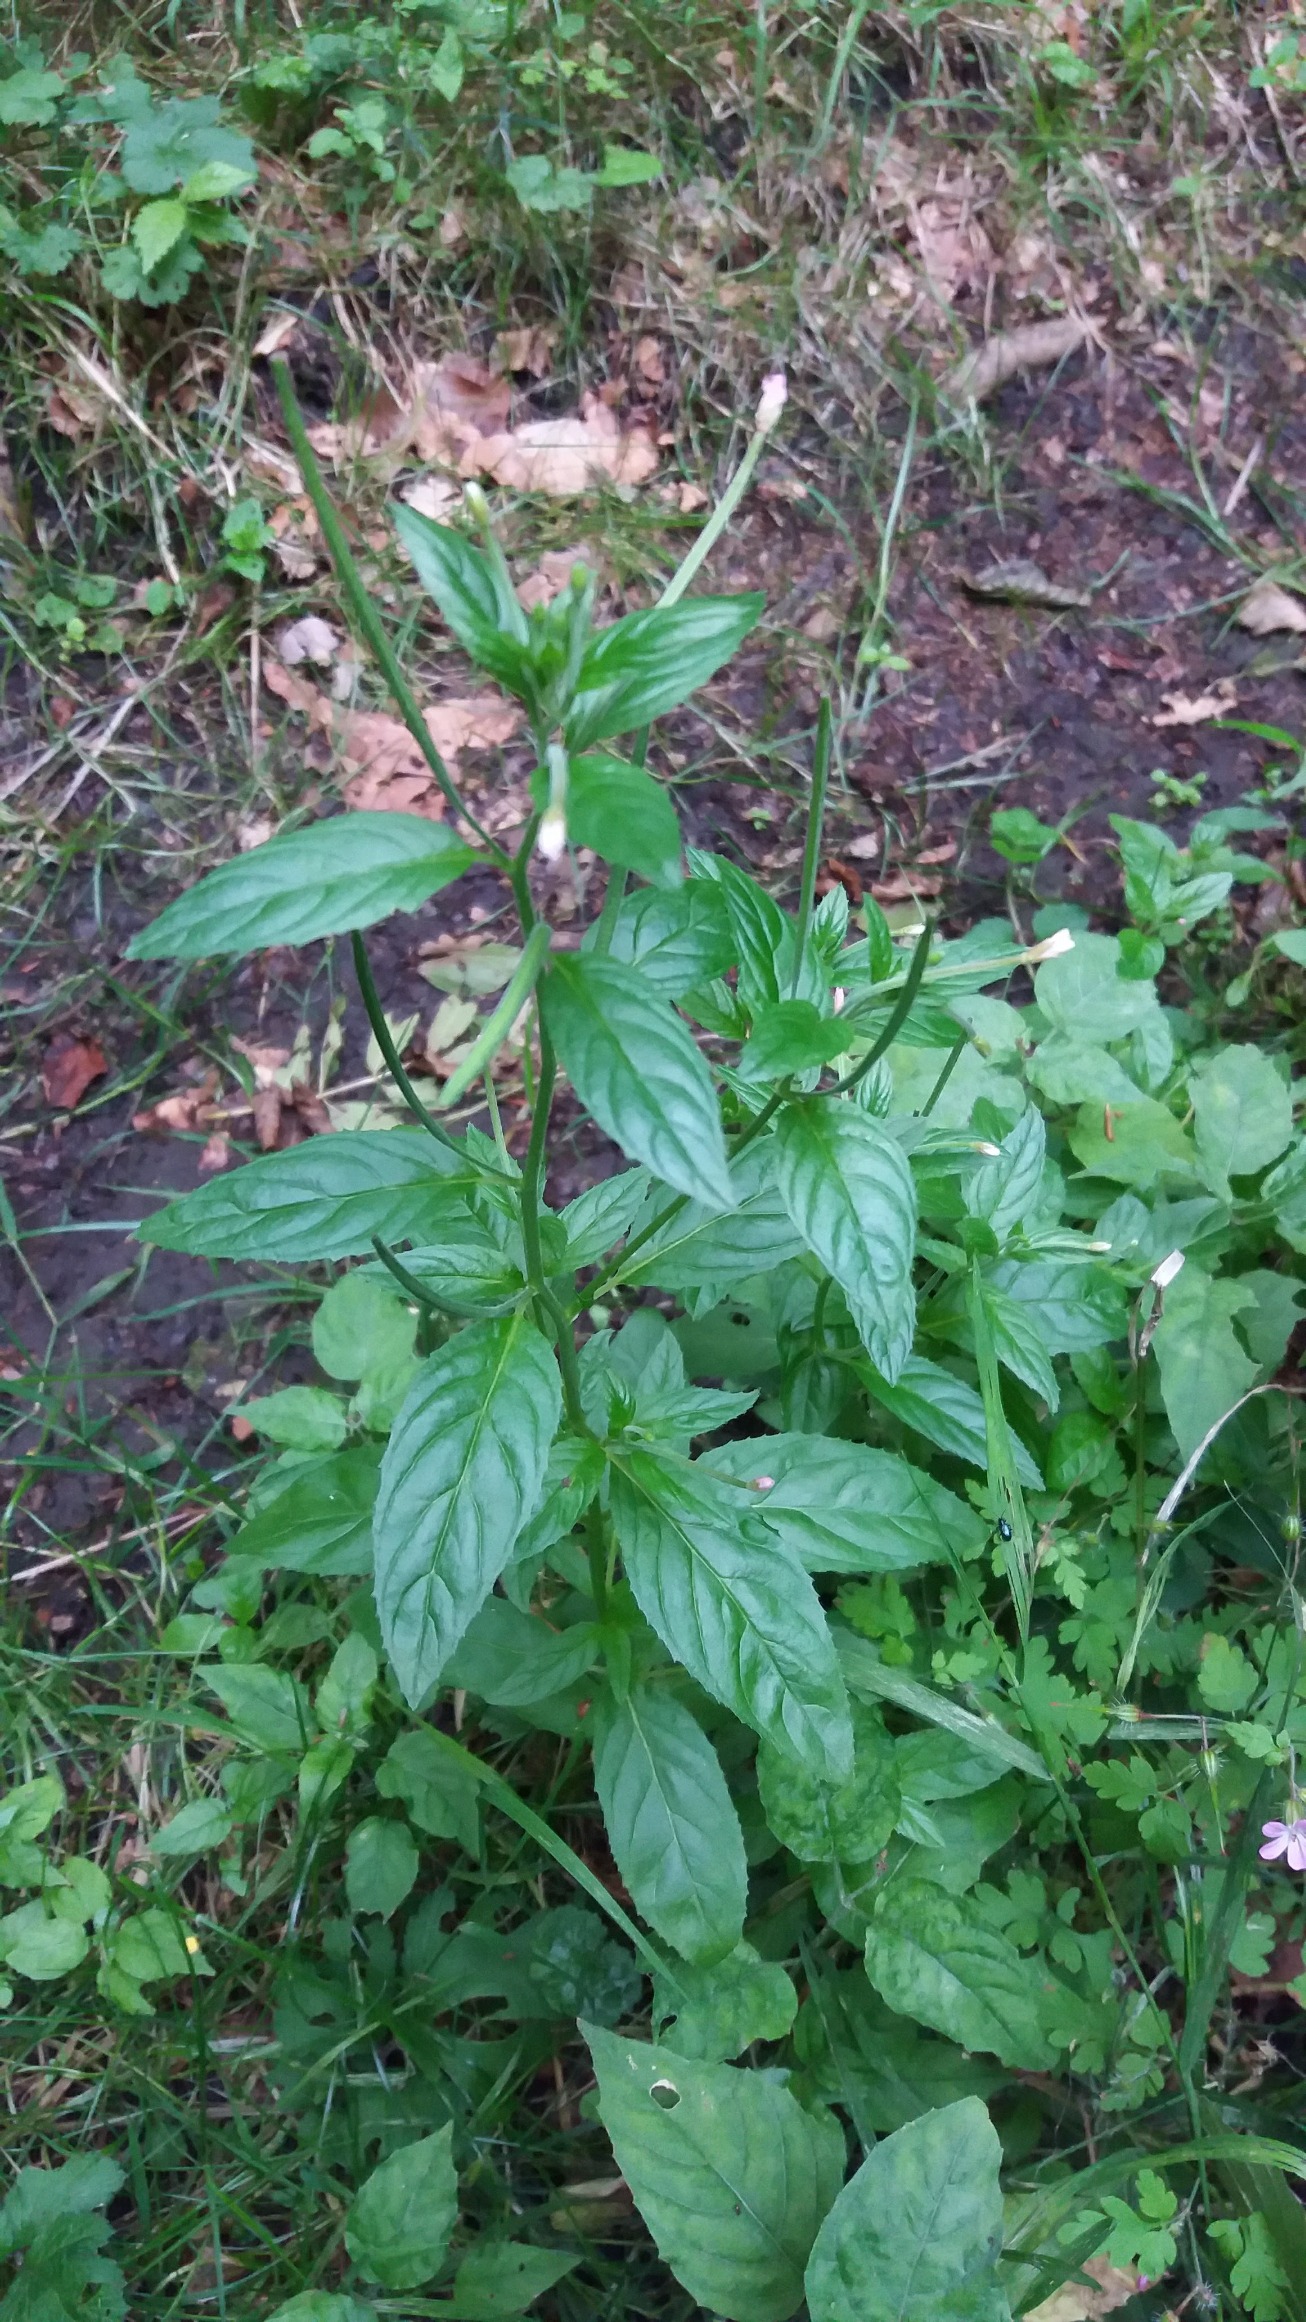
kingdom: Plantae
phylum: Tracheophyta
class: Magnoliopsida
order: Myrtales
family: Onagraceae
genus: Epilobium
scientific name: Epilobium roseum
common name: Rosen-dueurt
